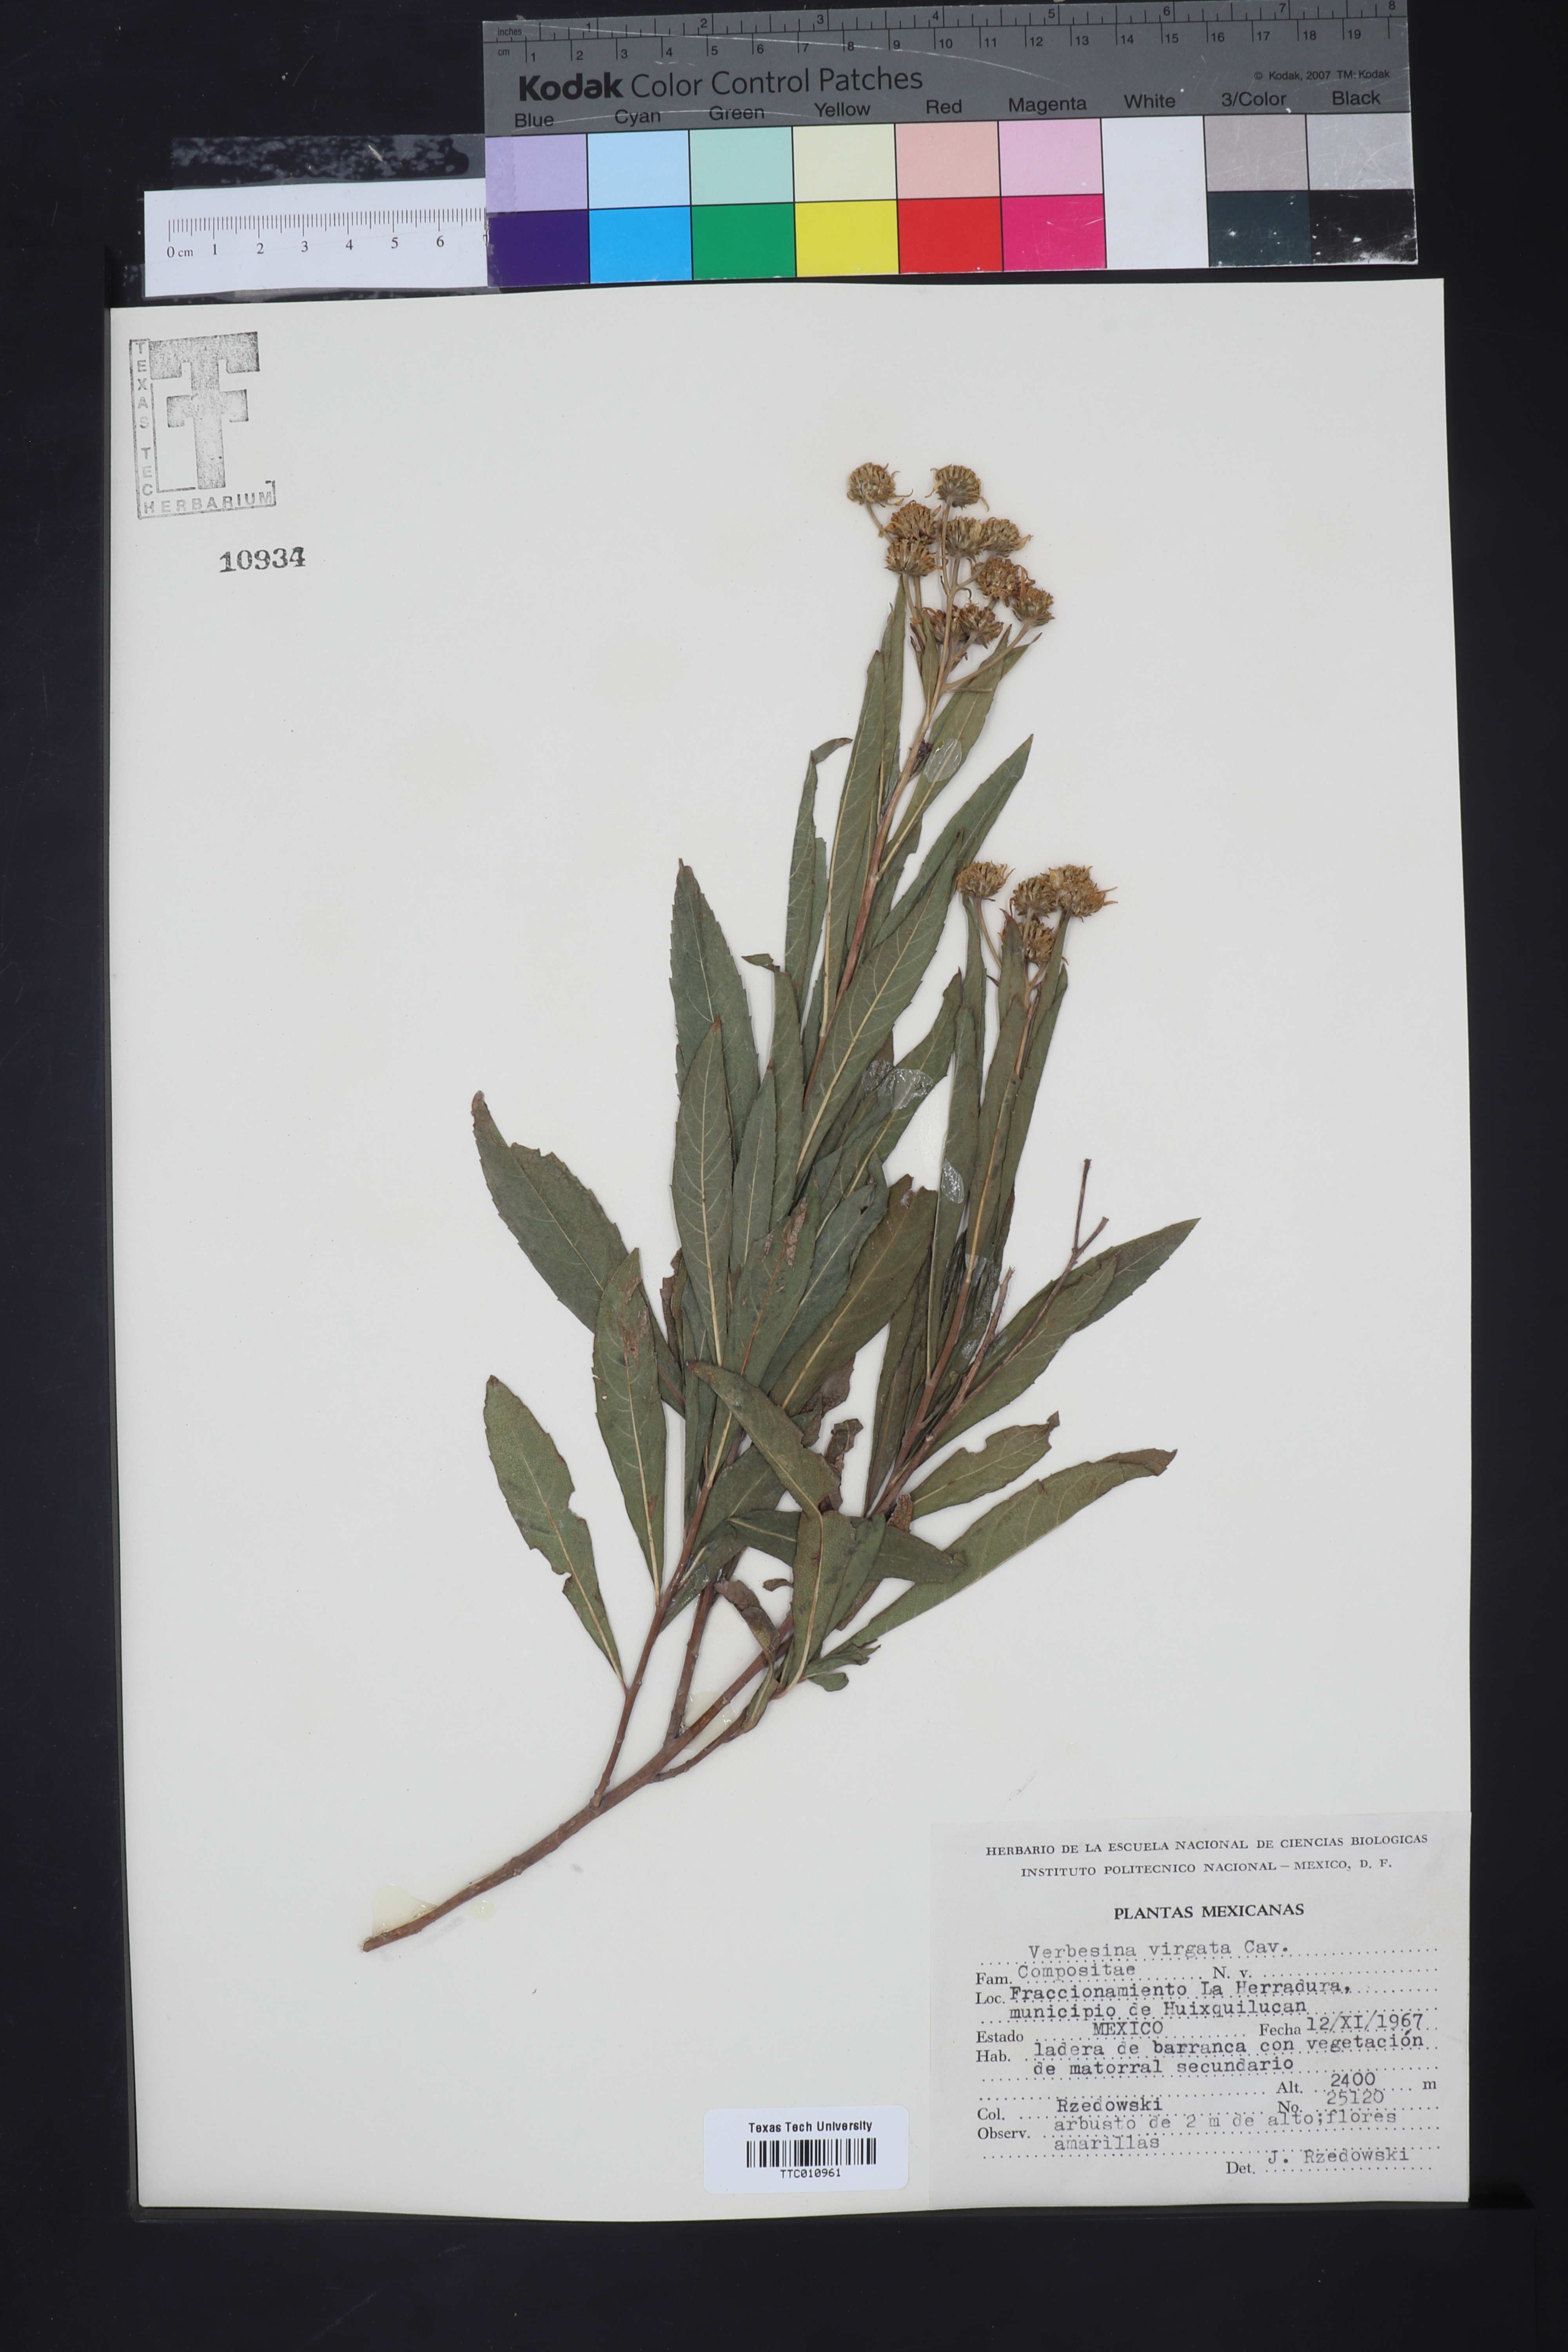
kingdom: Plantae
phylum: Tracheophyta
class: Magnoliopsida
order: Asterales
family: Asteraceae
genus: Verbesina
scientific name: Verbesina virgata
